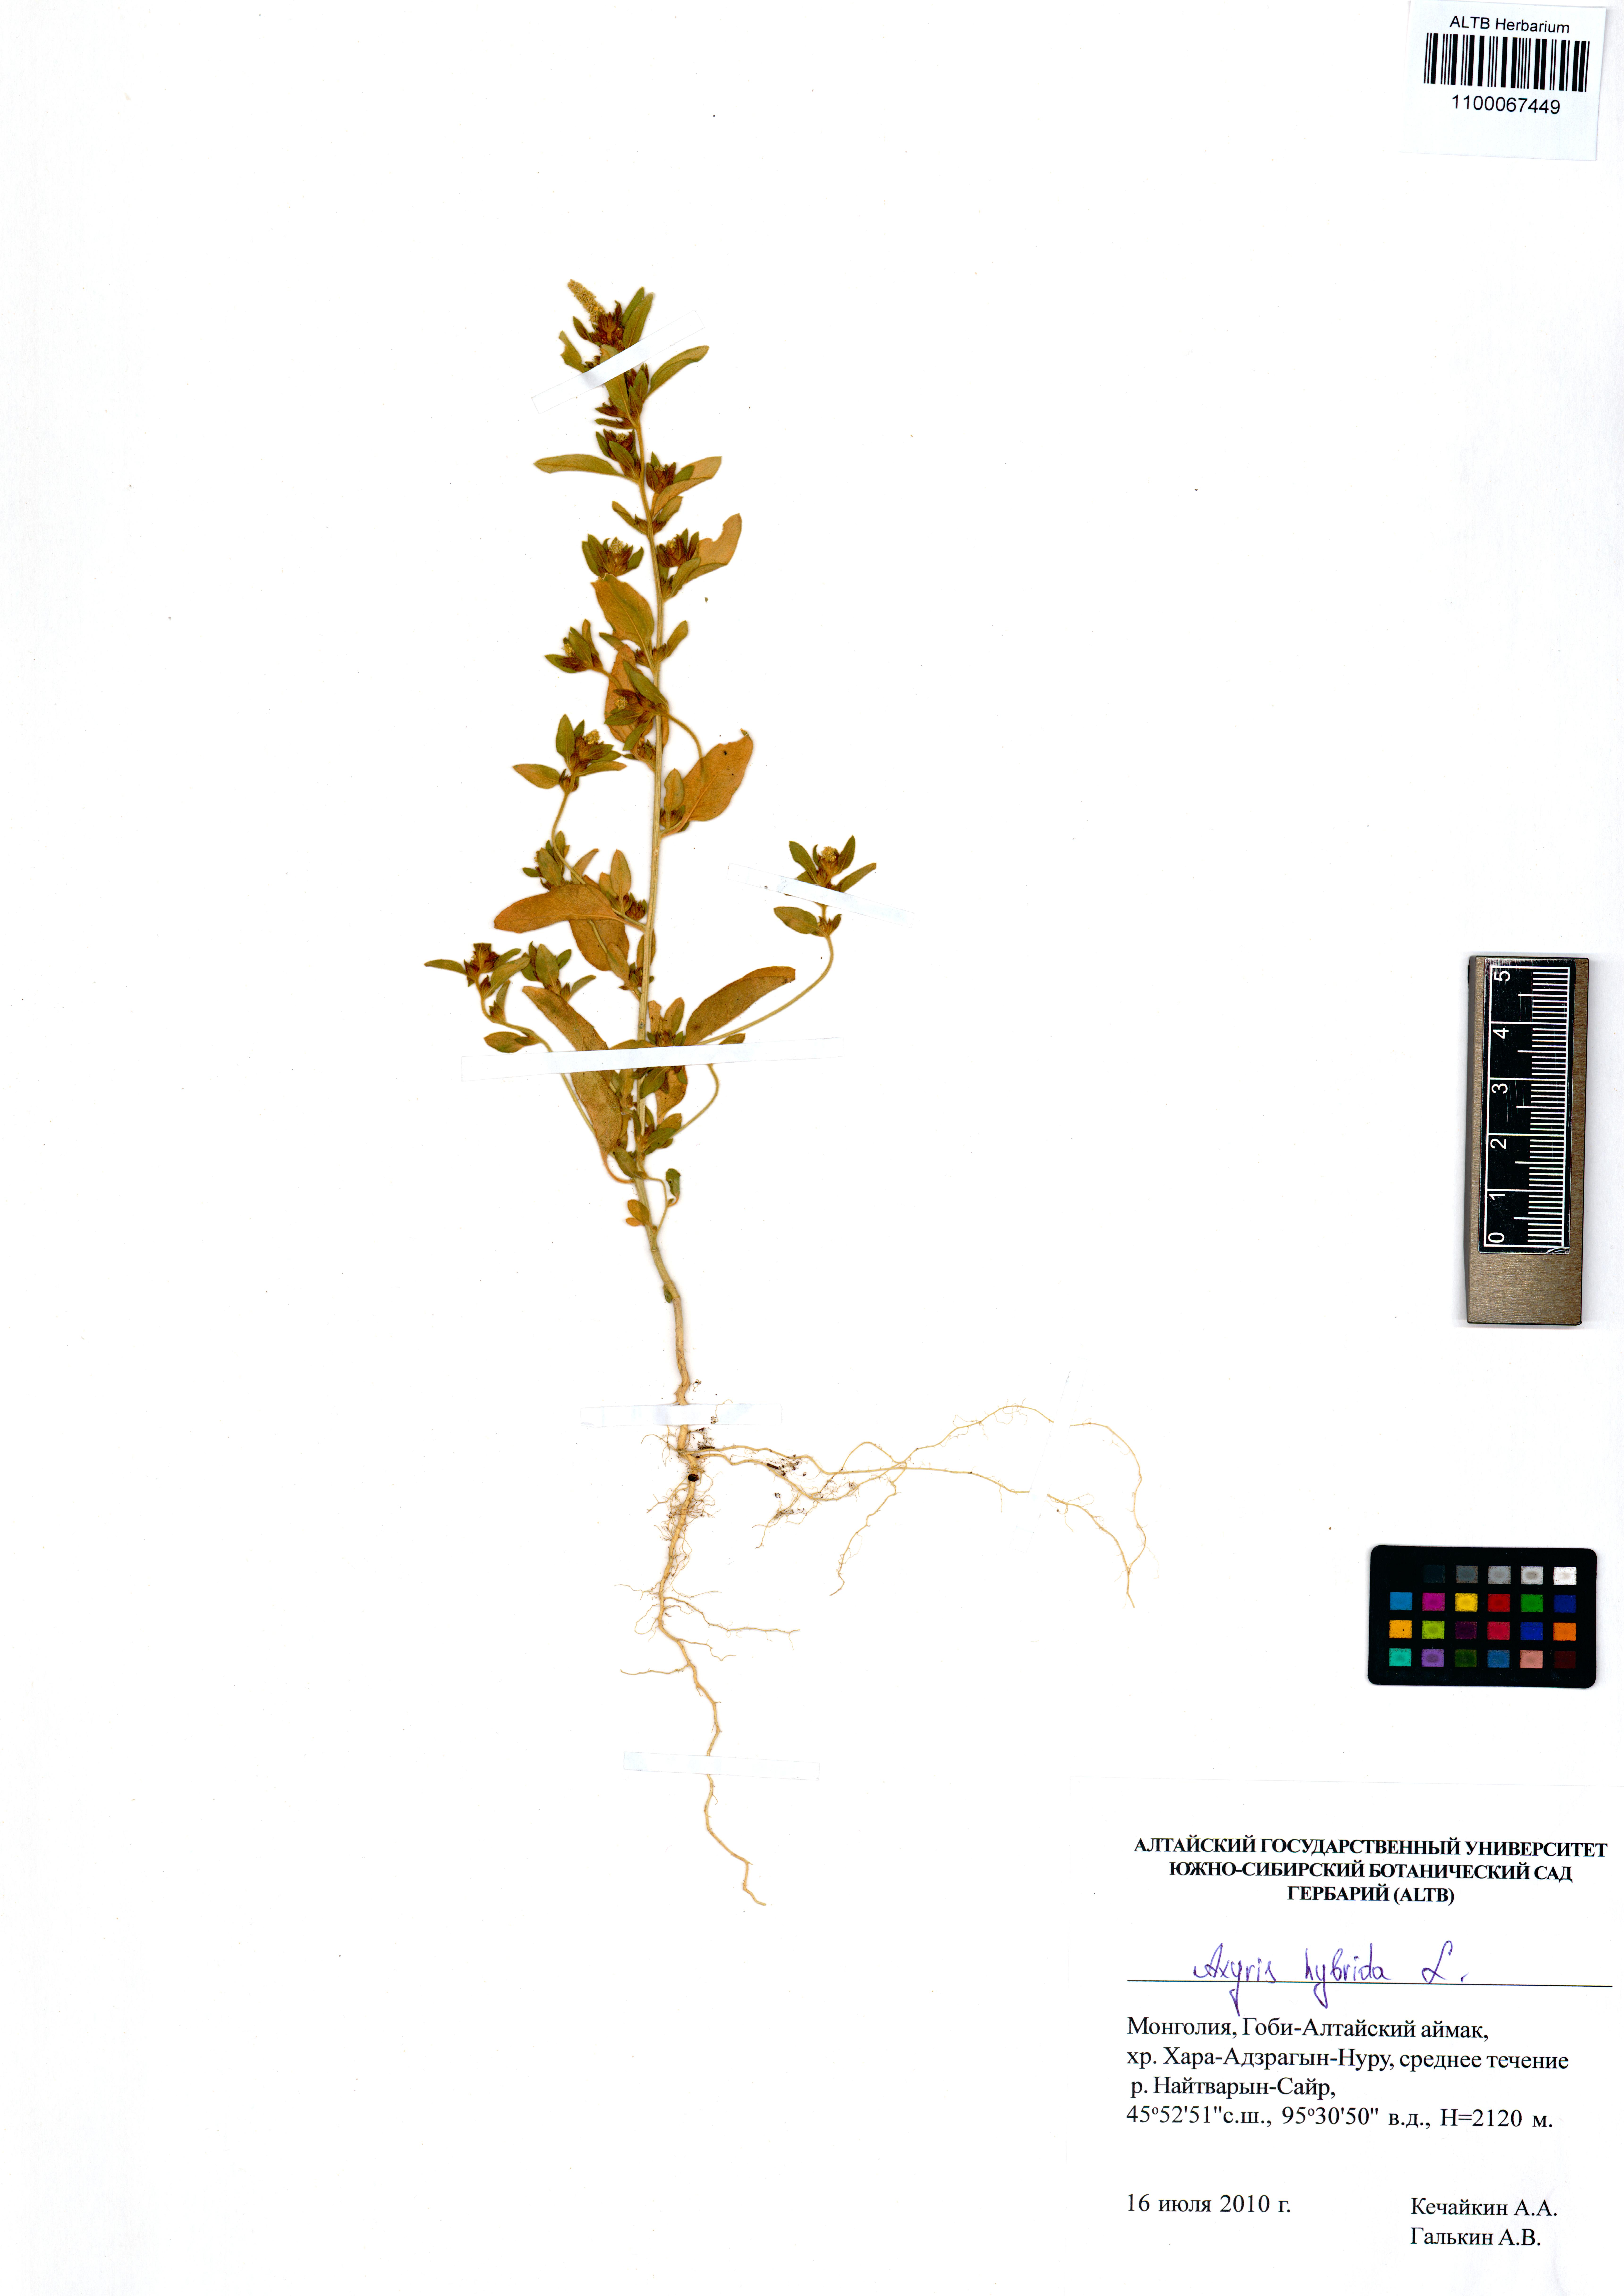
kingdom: Plantae
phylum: Tracheophyta
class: Magnoliopsida
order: Caryophyllales
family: Amaranthaceae
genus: Axyris
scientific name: Axyris hybrida
